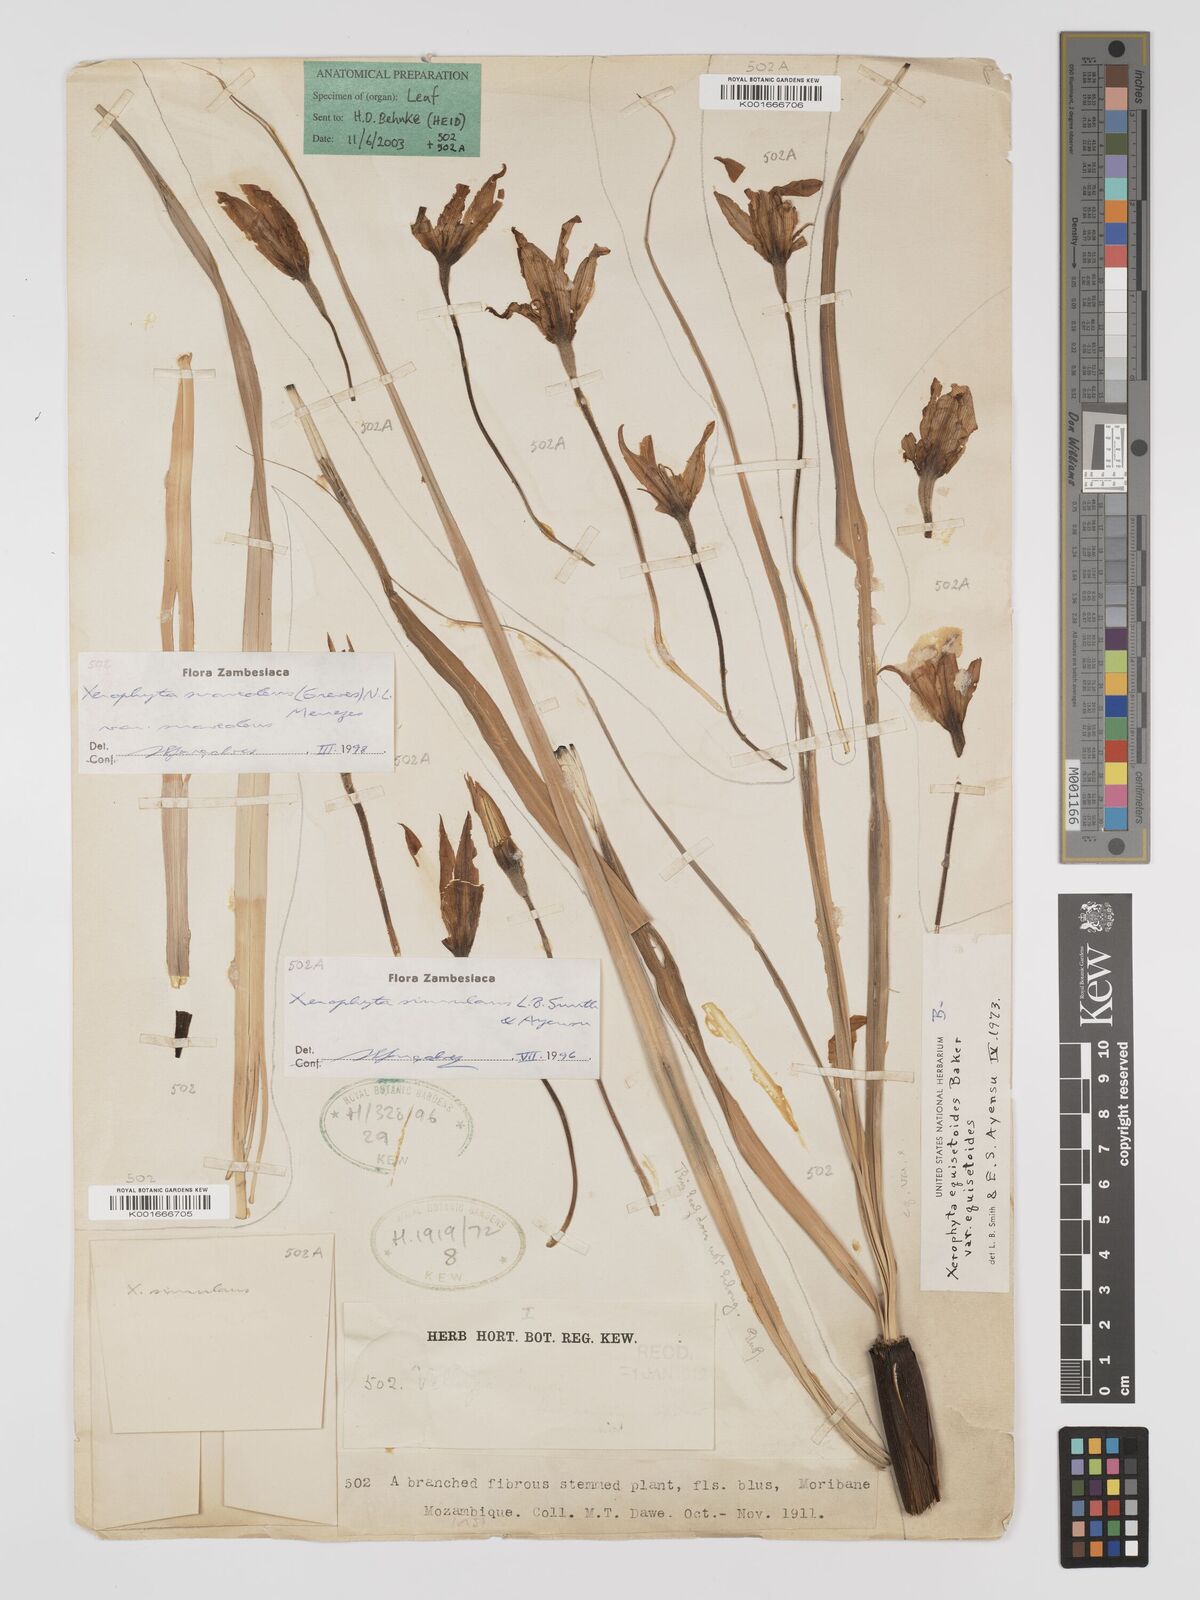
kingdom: Plantae
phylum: Tracheophyta
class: Liliopsida
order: Pandanales
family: Velloziaceae
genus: Xerophyta
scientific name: Xerophyta suaveolens
